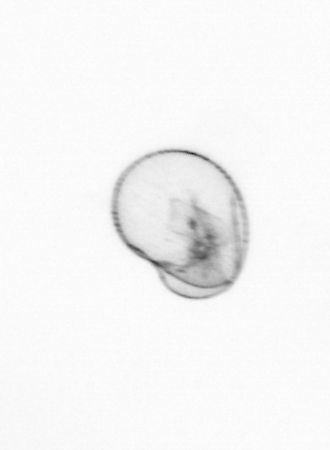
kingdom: Chromista
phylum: Myzozoa
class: Dinophyceae
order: Noctilucales
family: Noctilucaceae
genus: Noctiluca
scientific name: Noctiluca scintillans
